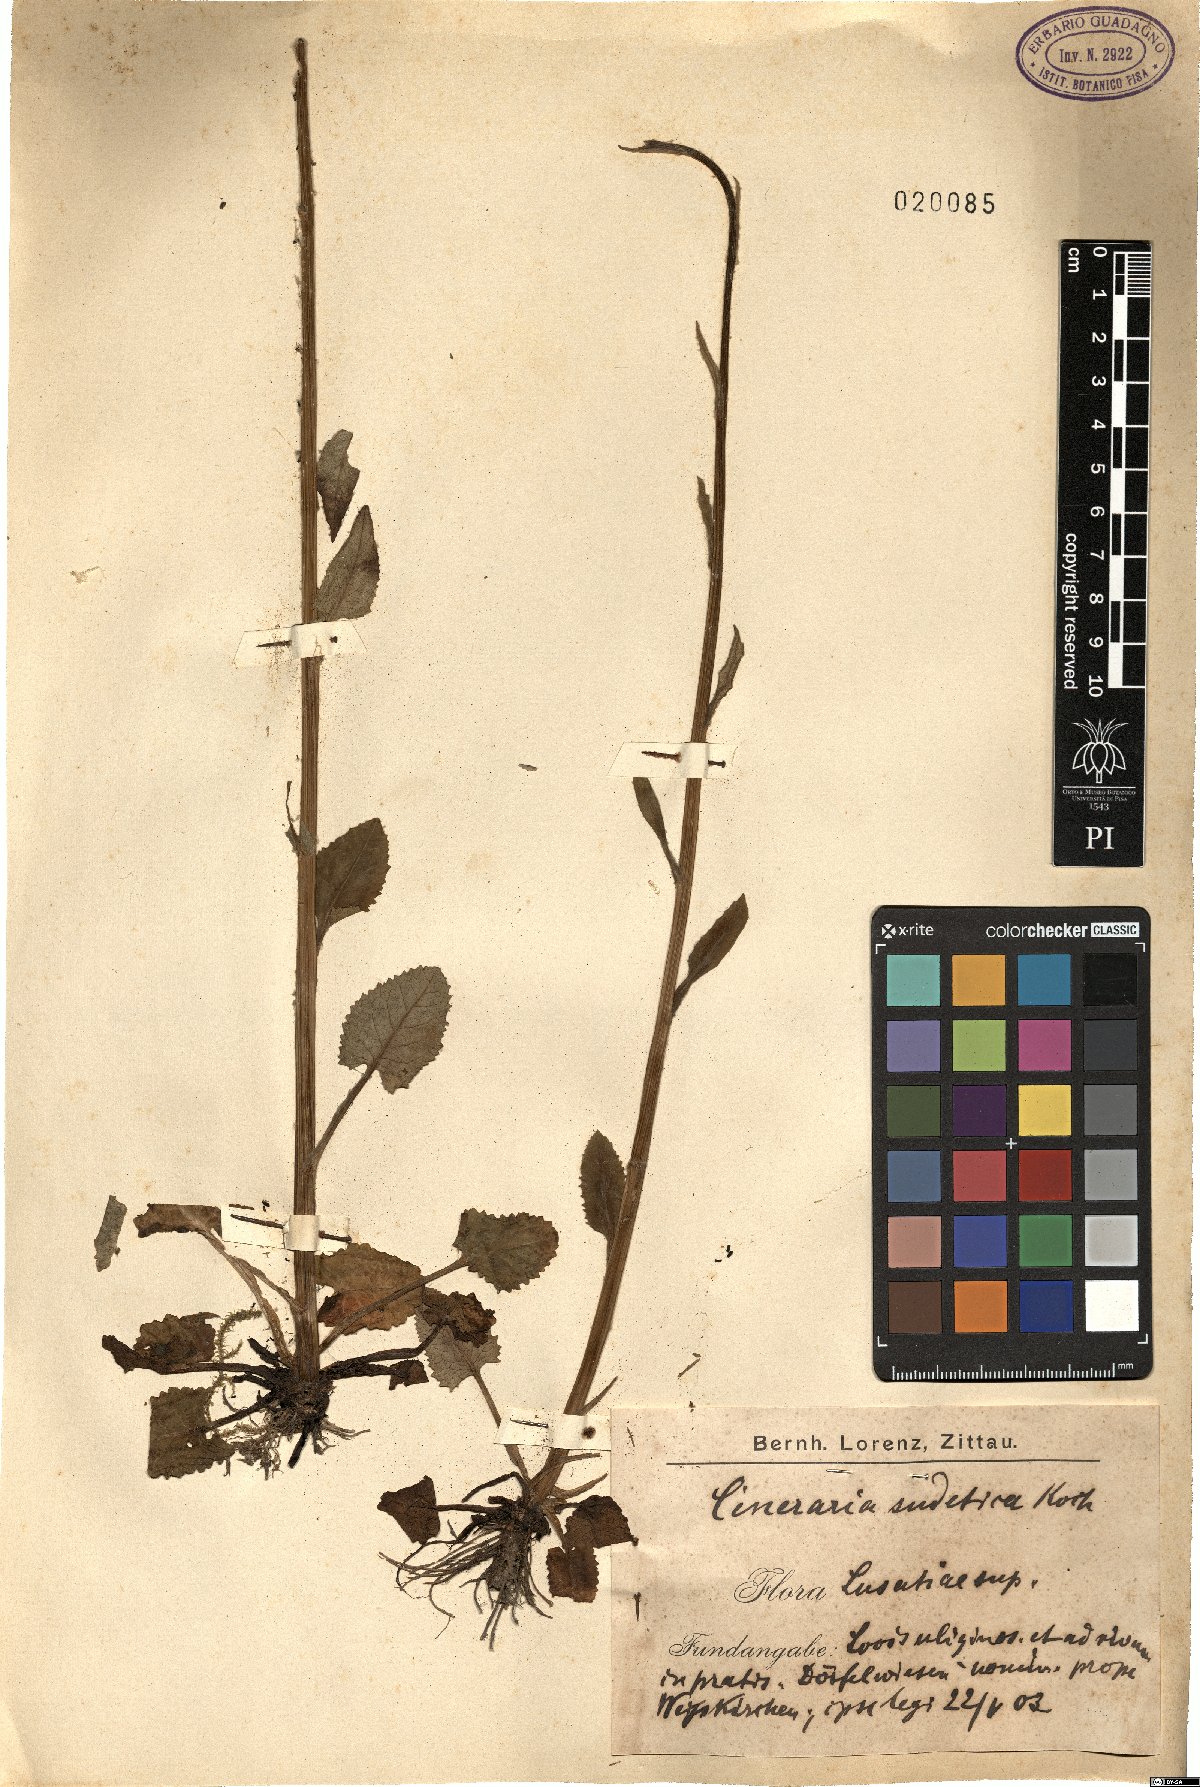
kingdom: Plantae
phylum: Tracheophyta
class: Magnoliopsida
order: Asterales
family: Asteraceae
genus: Tephroseris
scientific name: Tephroseris crispa
